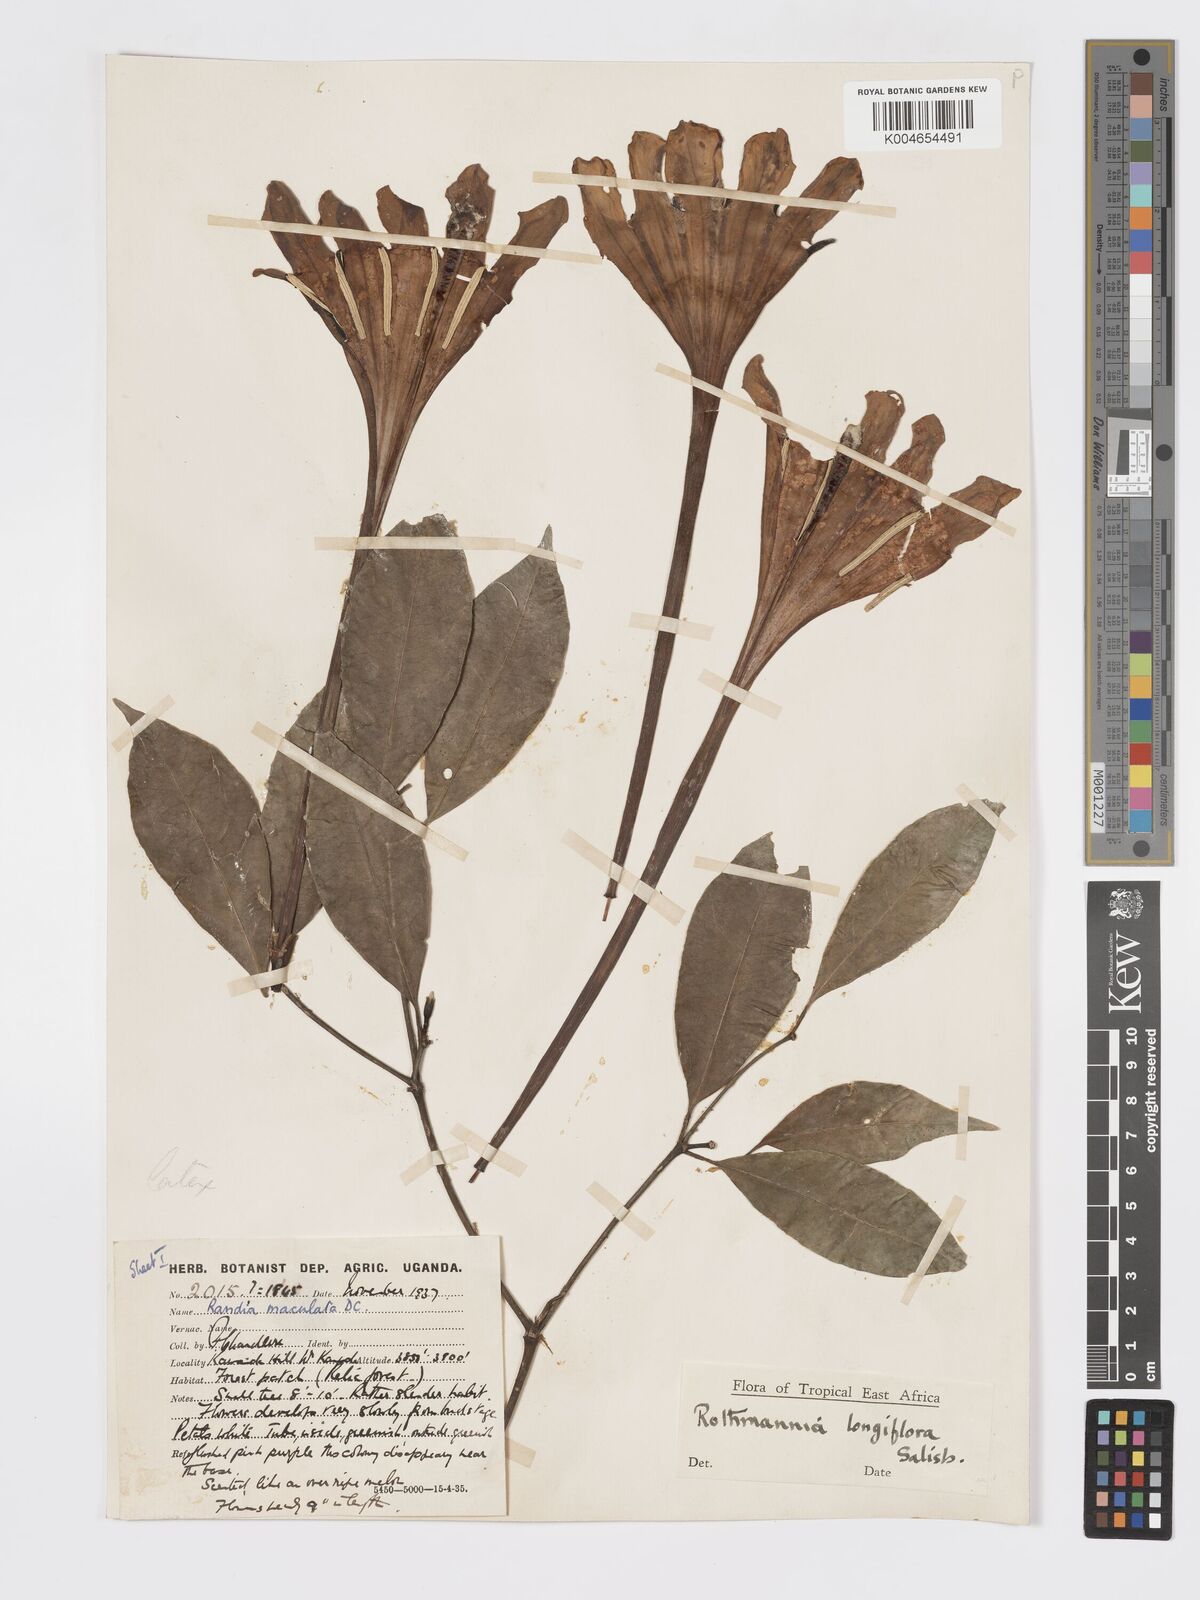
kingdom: Plantae
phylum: Tracheophyta
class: Magnoliopsida
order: Gentianales
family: Rubiaceae
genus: Rothmannia
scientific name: Rothmannia longiflora
